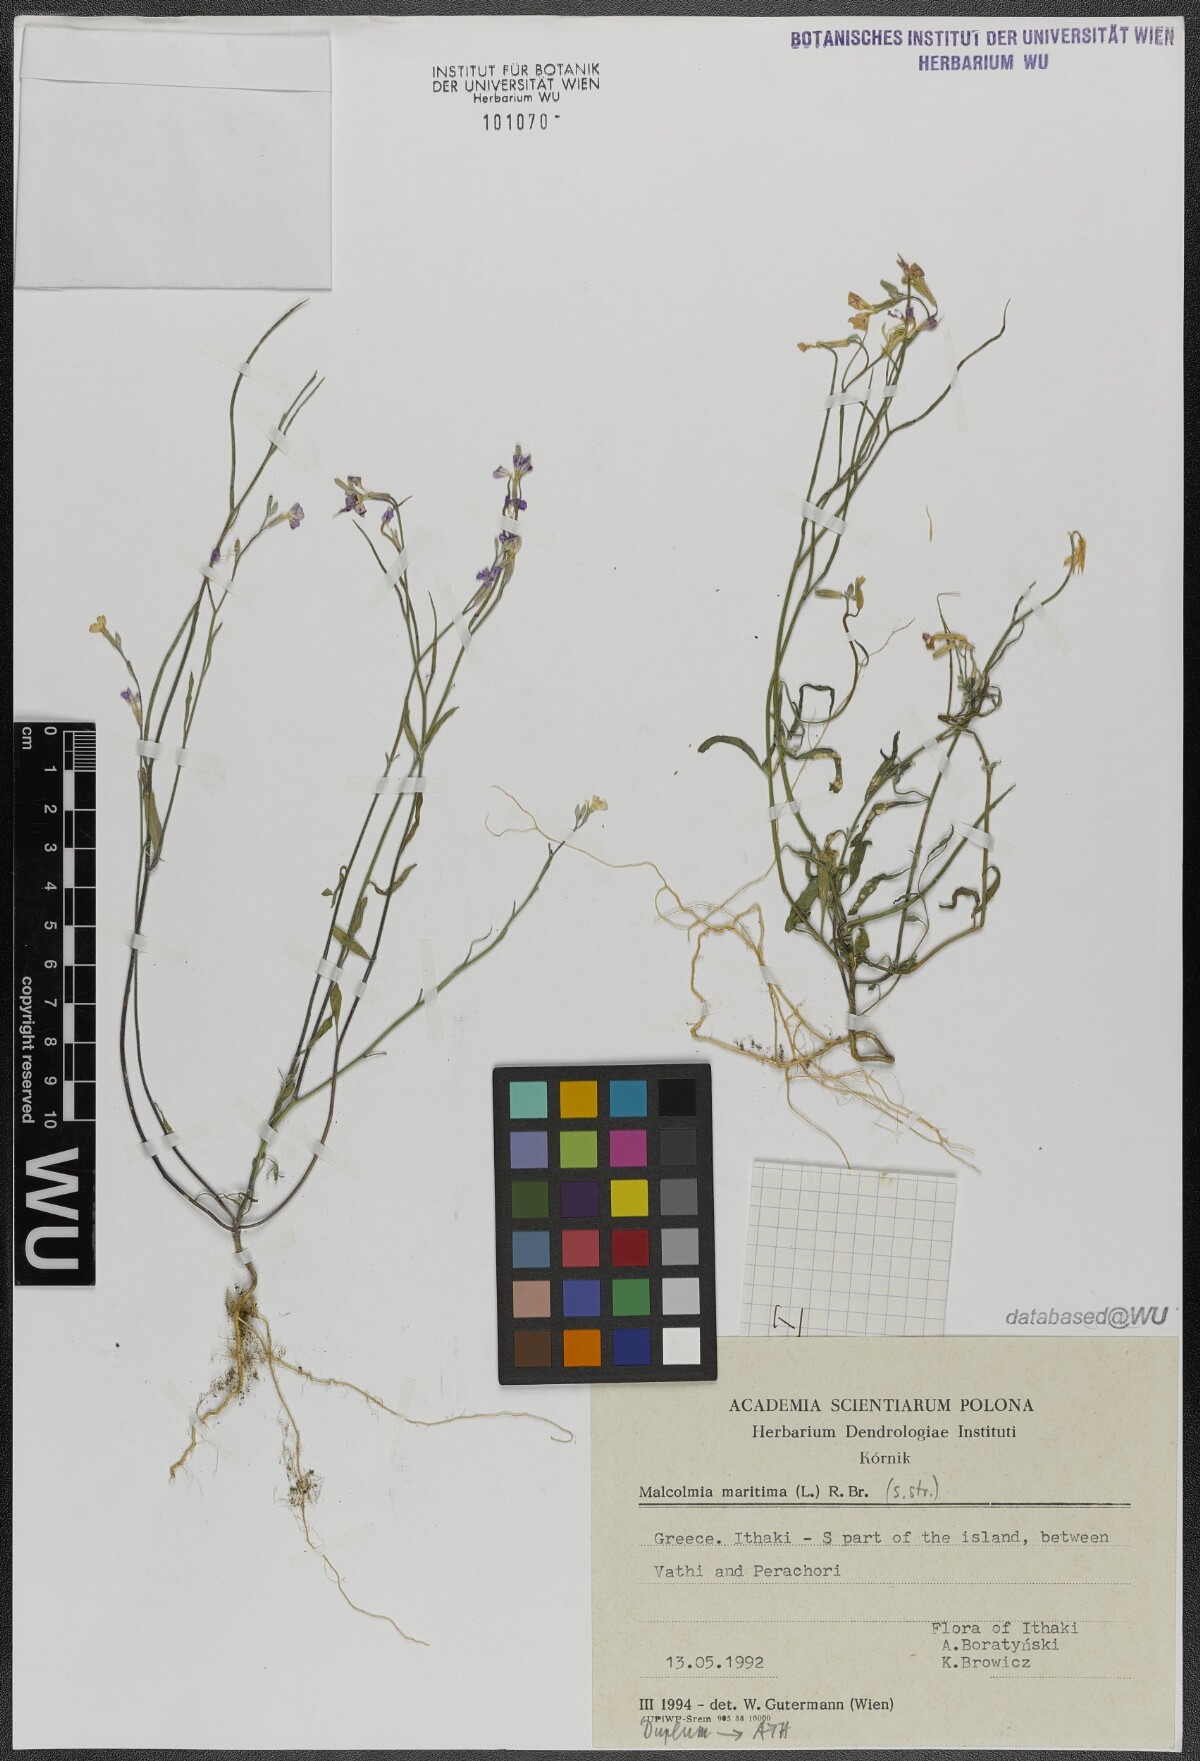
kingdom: Plantae
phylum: Tracheophyta
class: Magnoliopsida
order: Brassicales
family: Brassicaceae
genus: Malcolmia
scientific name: Malcolmia maritima
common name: Virginia stock
